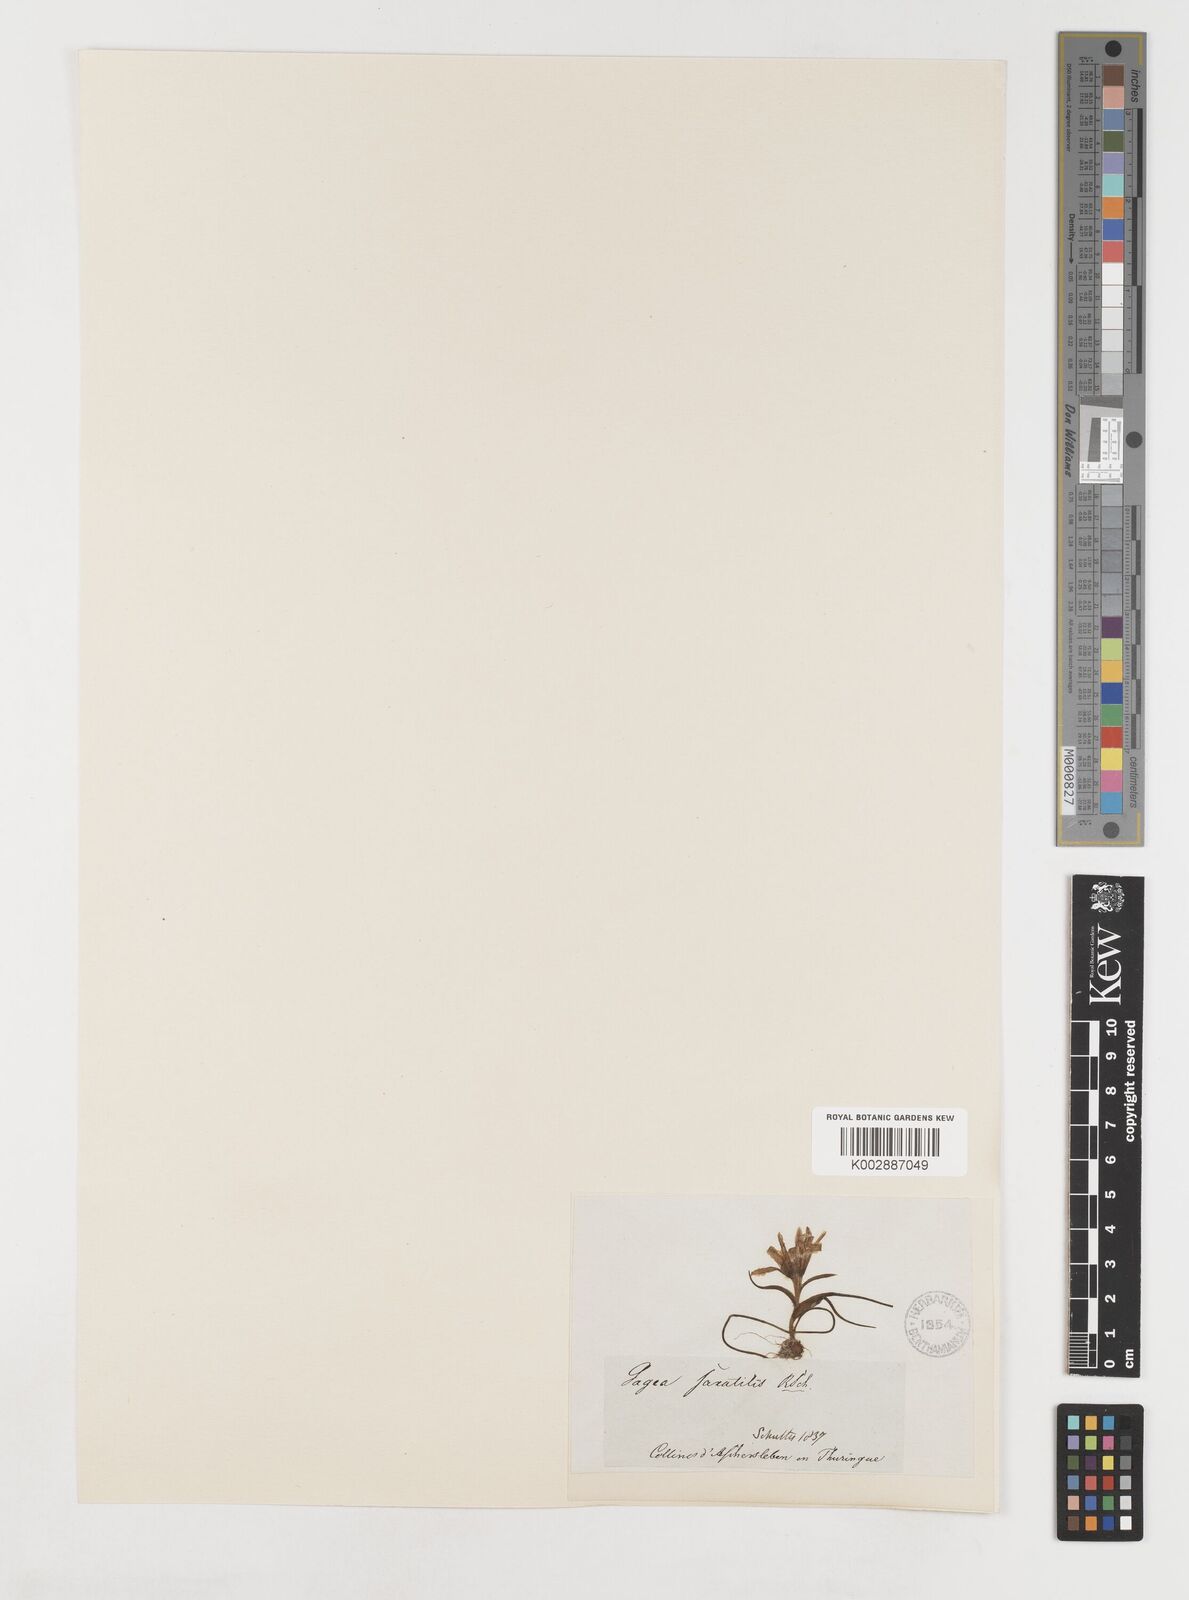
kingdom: Plantae
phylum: Tracheophyta
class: Liliopsida
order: Liliales
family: Liliaceae
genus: Gagea
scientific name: Gagea bohemica
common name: Early star-of-bethlehem
